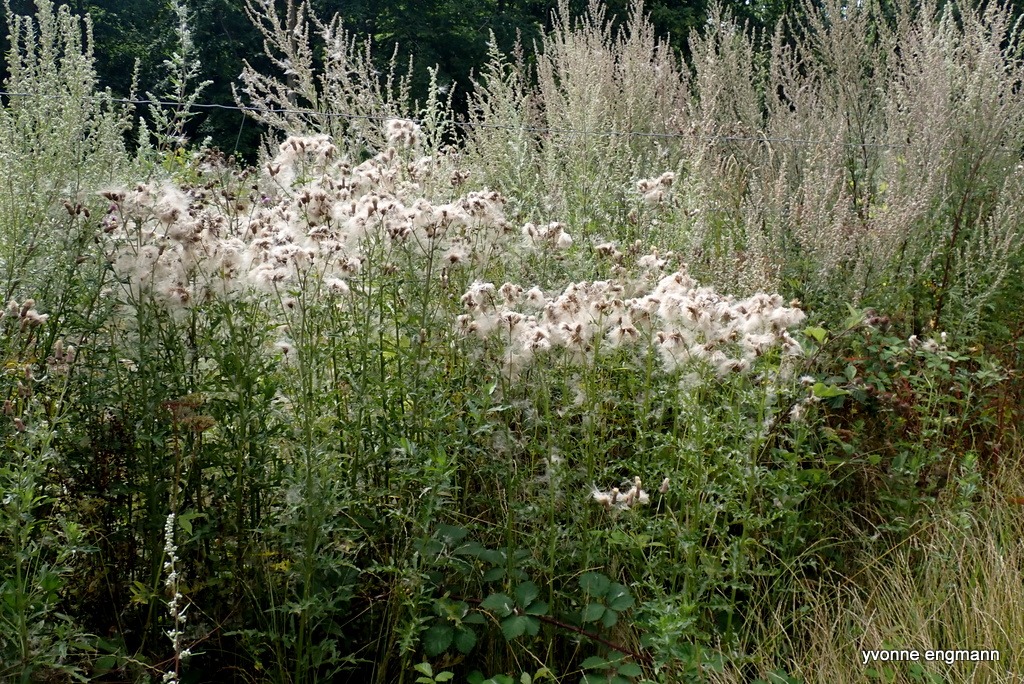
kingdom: Plantae
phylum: Tracheophyta
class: Magnoliopsida
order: Asterales
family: Asteraceae
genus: Cirsium
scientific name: Cirsium arvense
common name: Ager-tidsel
